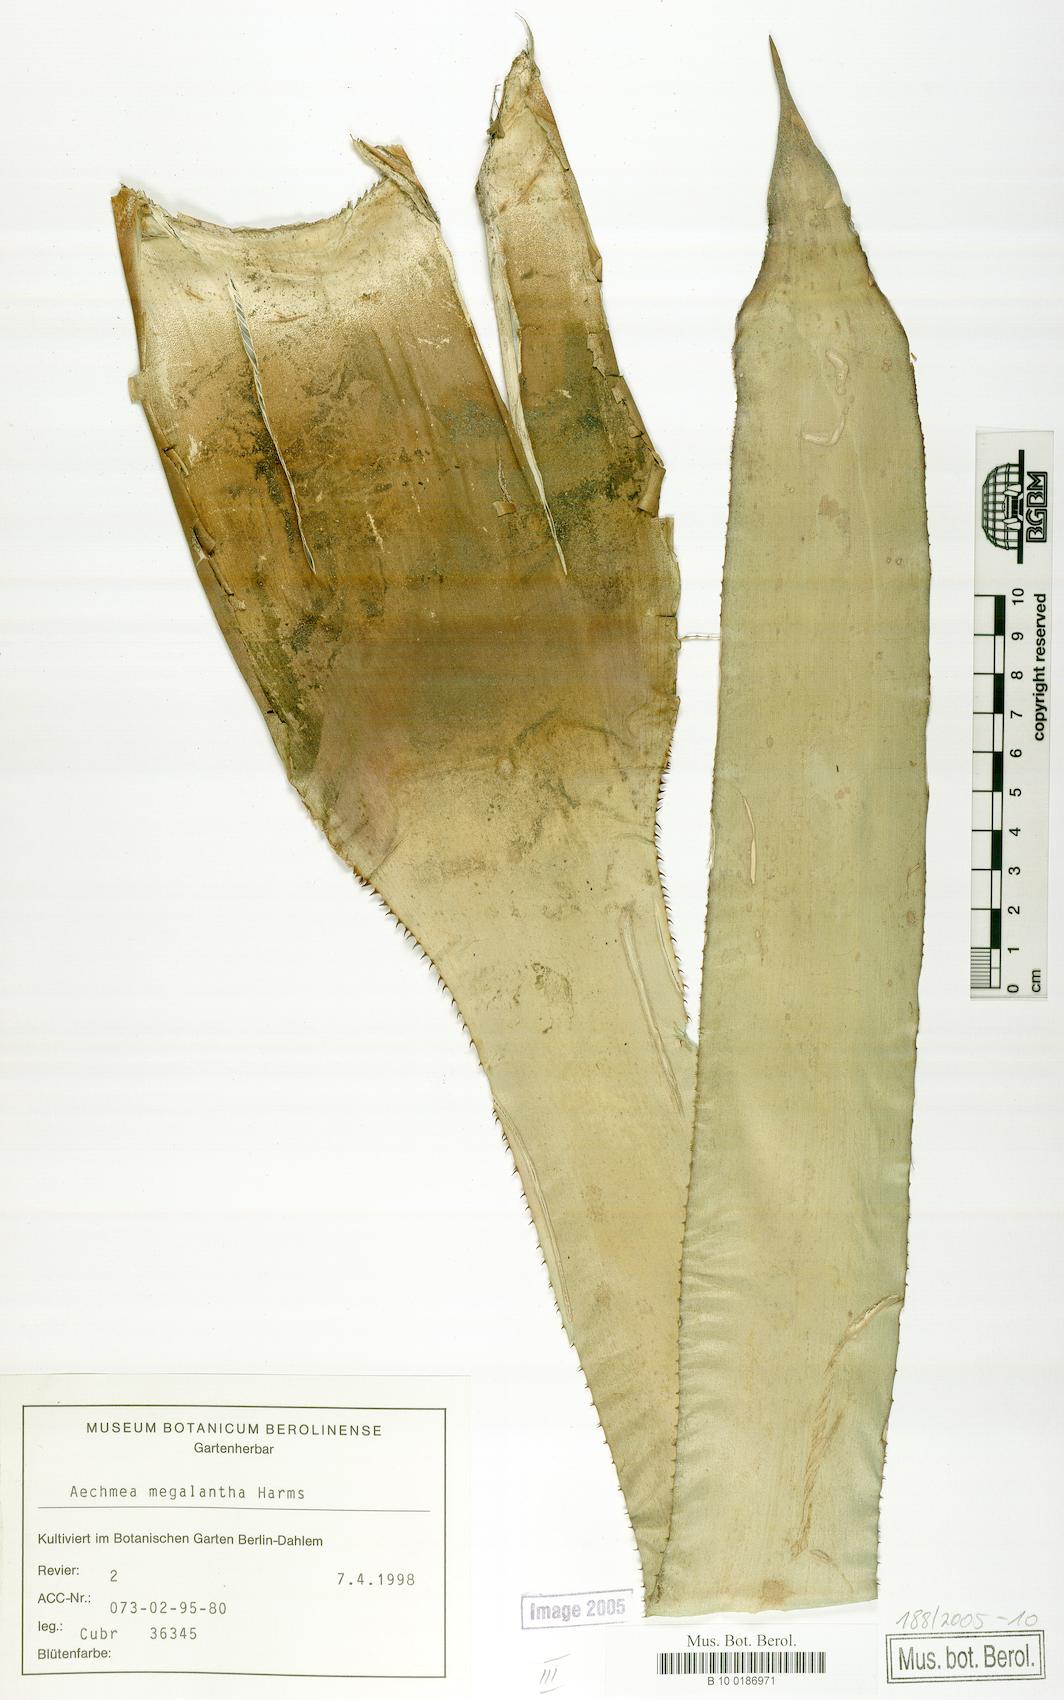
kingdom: Plantae
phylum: Tracheophyta
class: Liliopsida
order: Poales
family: Bromeliaceae
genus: Aechmea
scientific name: Aechmea costantinii
